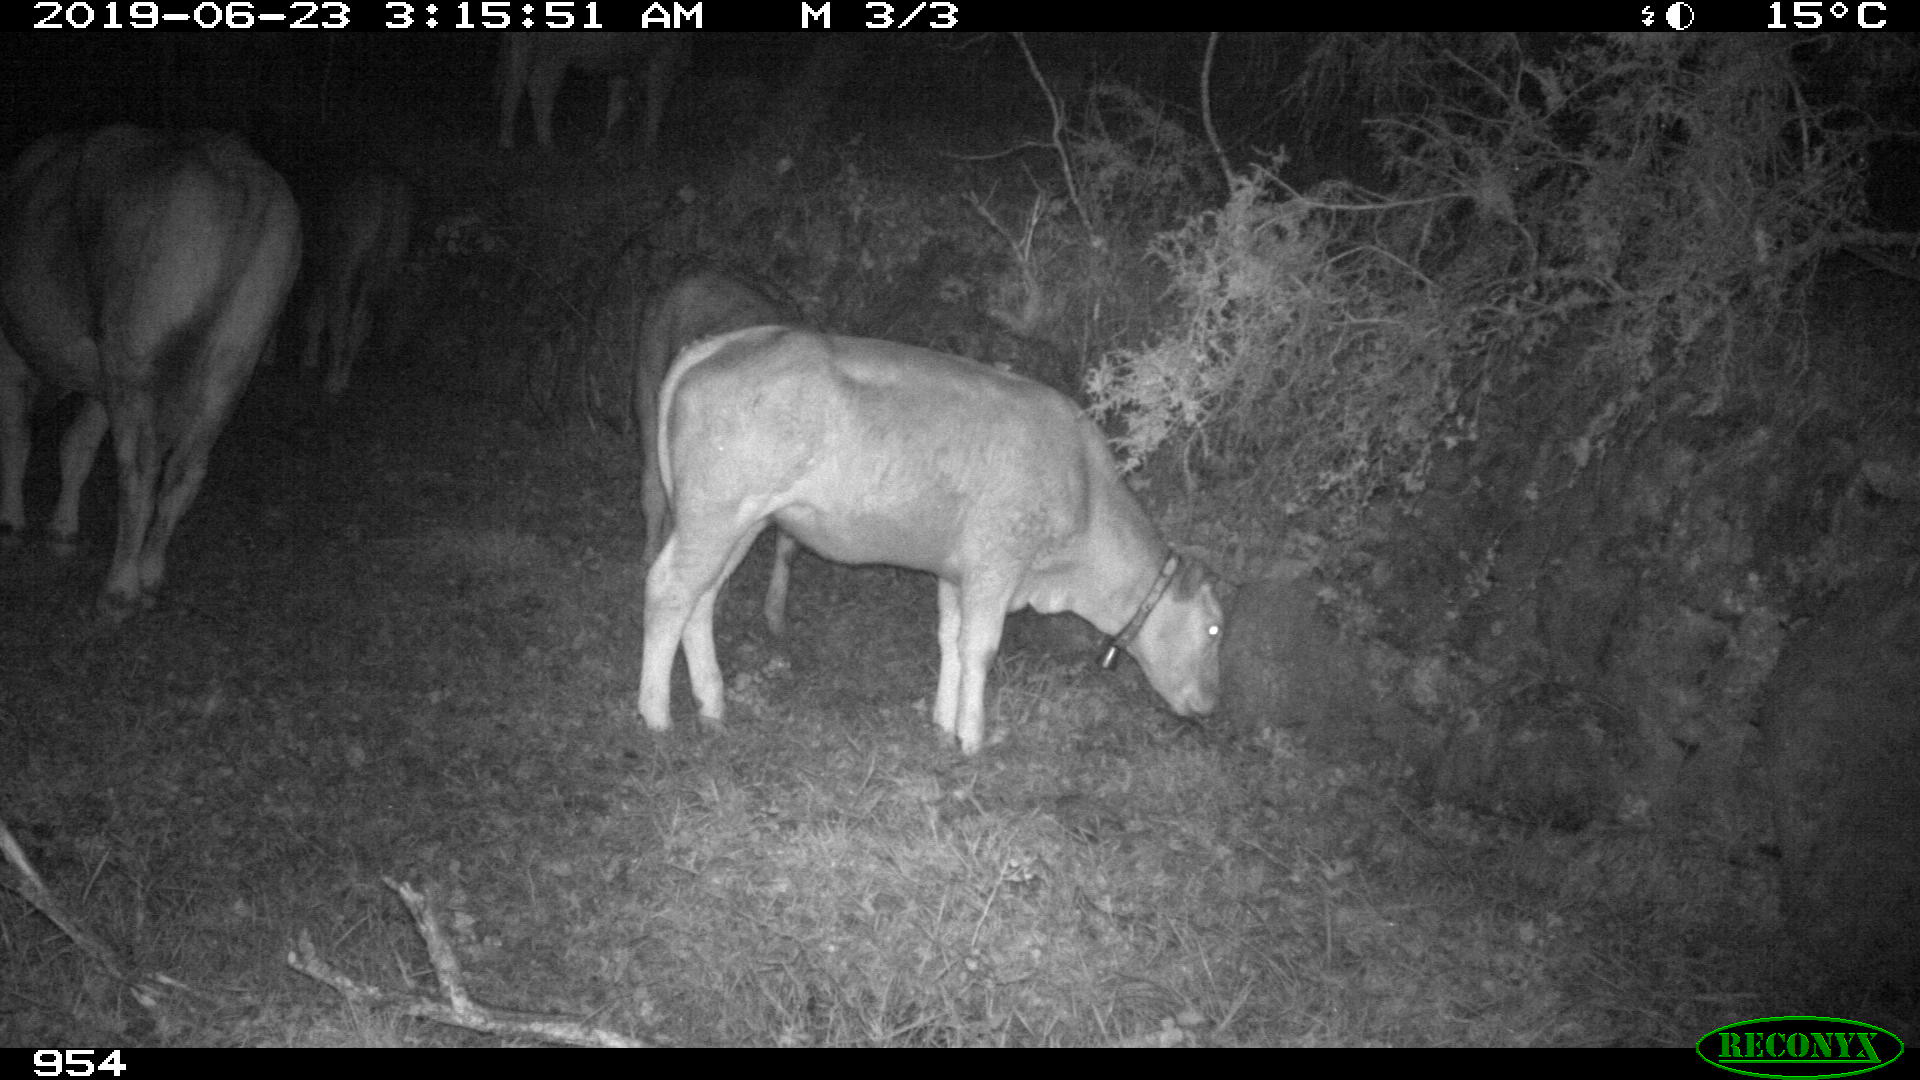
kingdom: Animalia
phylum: Chordata
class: Mammalia
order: Artiodactyla
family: Bovidae
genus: Bos
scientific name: Bos taurus
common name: Domesticated cattle
